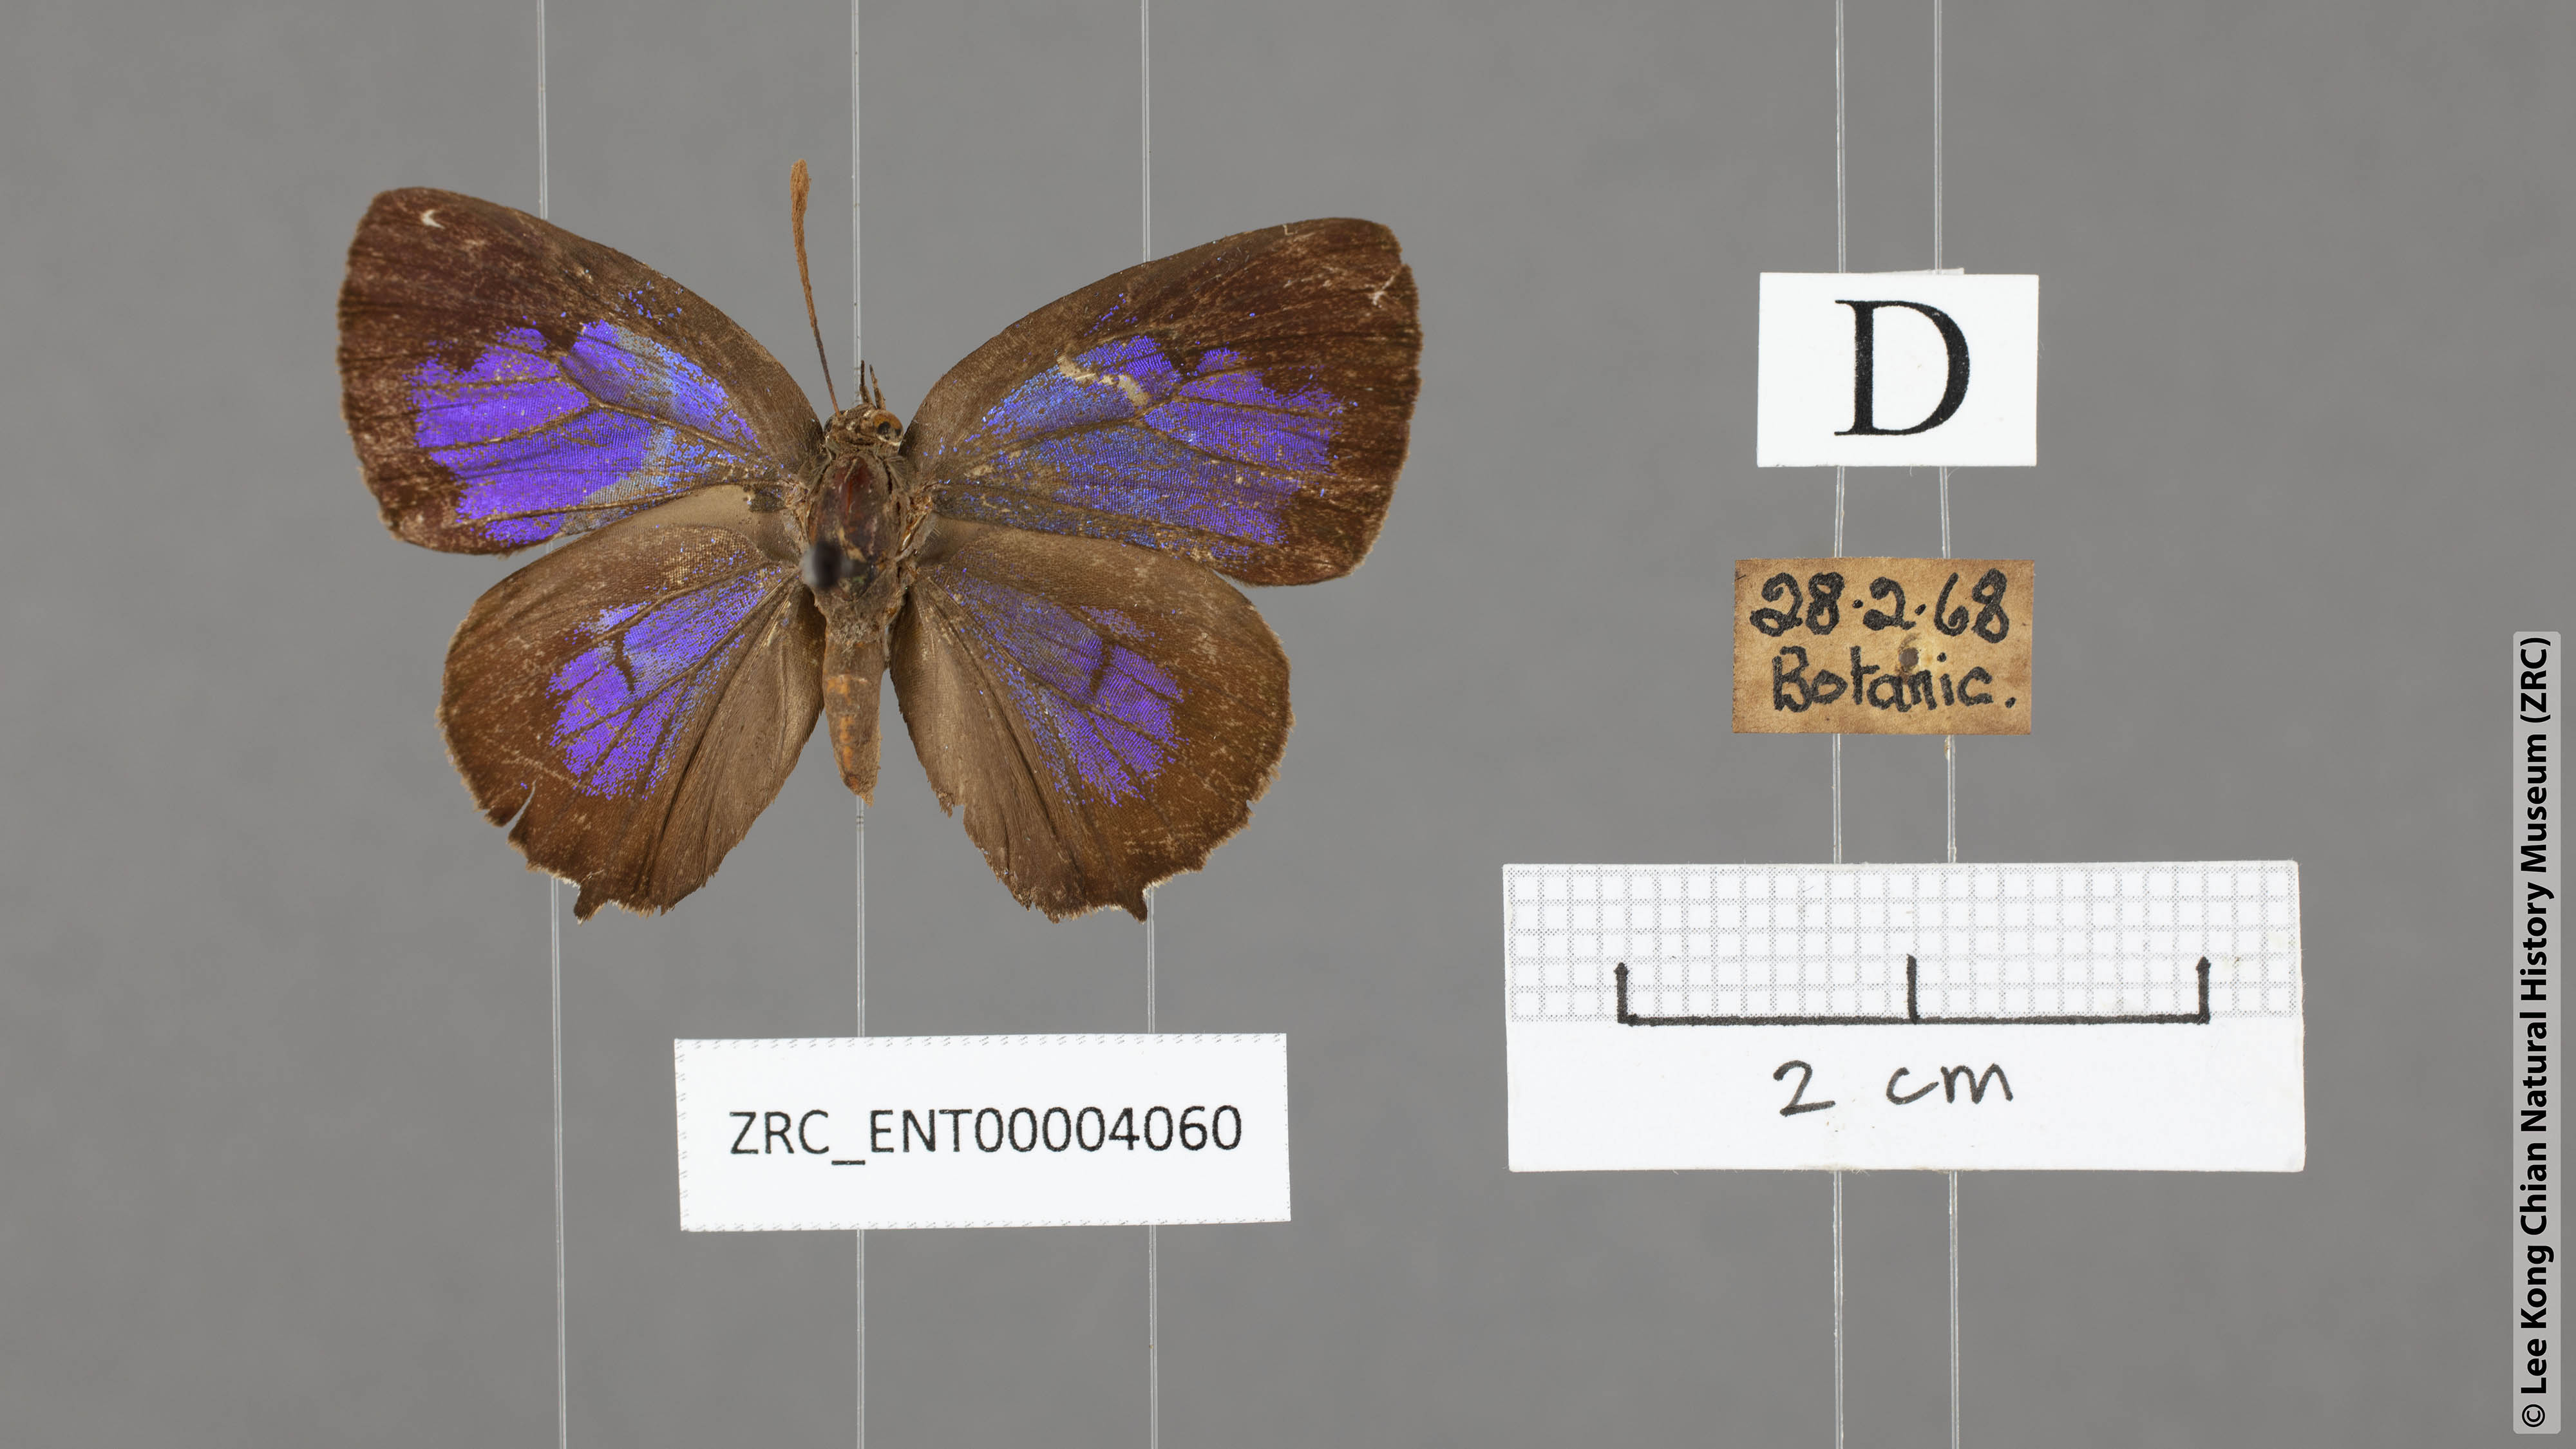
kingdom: Animalia
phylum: Arthropoda
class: Insecta
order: Lepidoptera
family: Lycaenidae
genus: Arhopala
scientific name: Arhopala trogon
